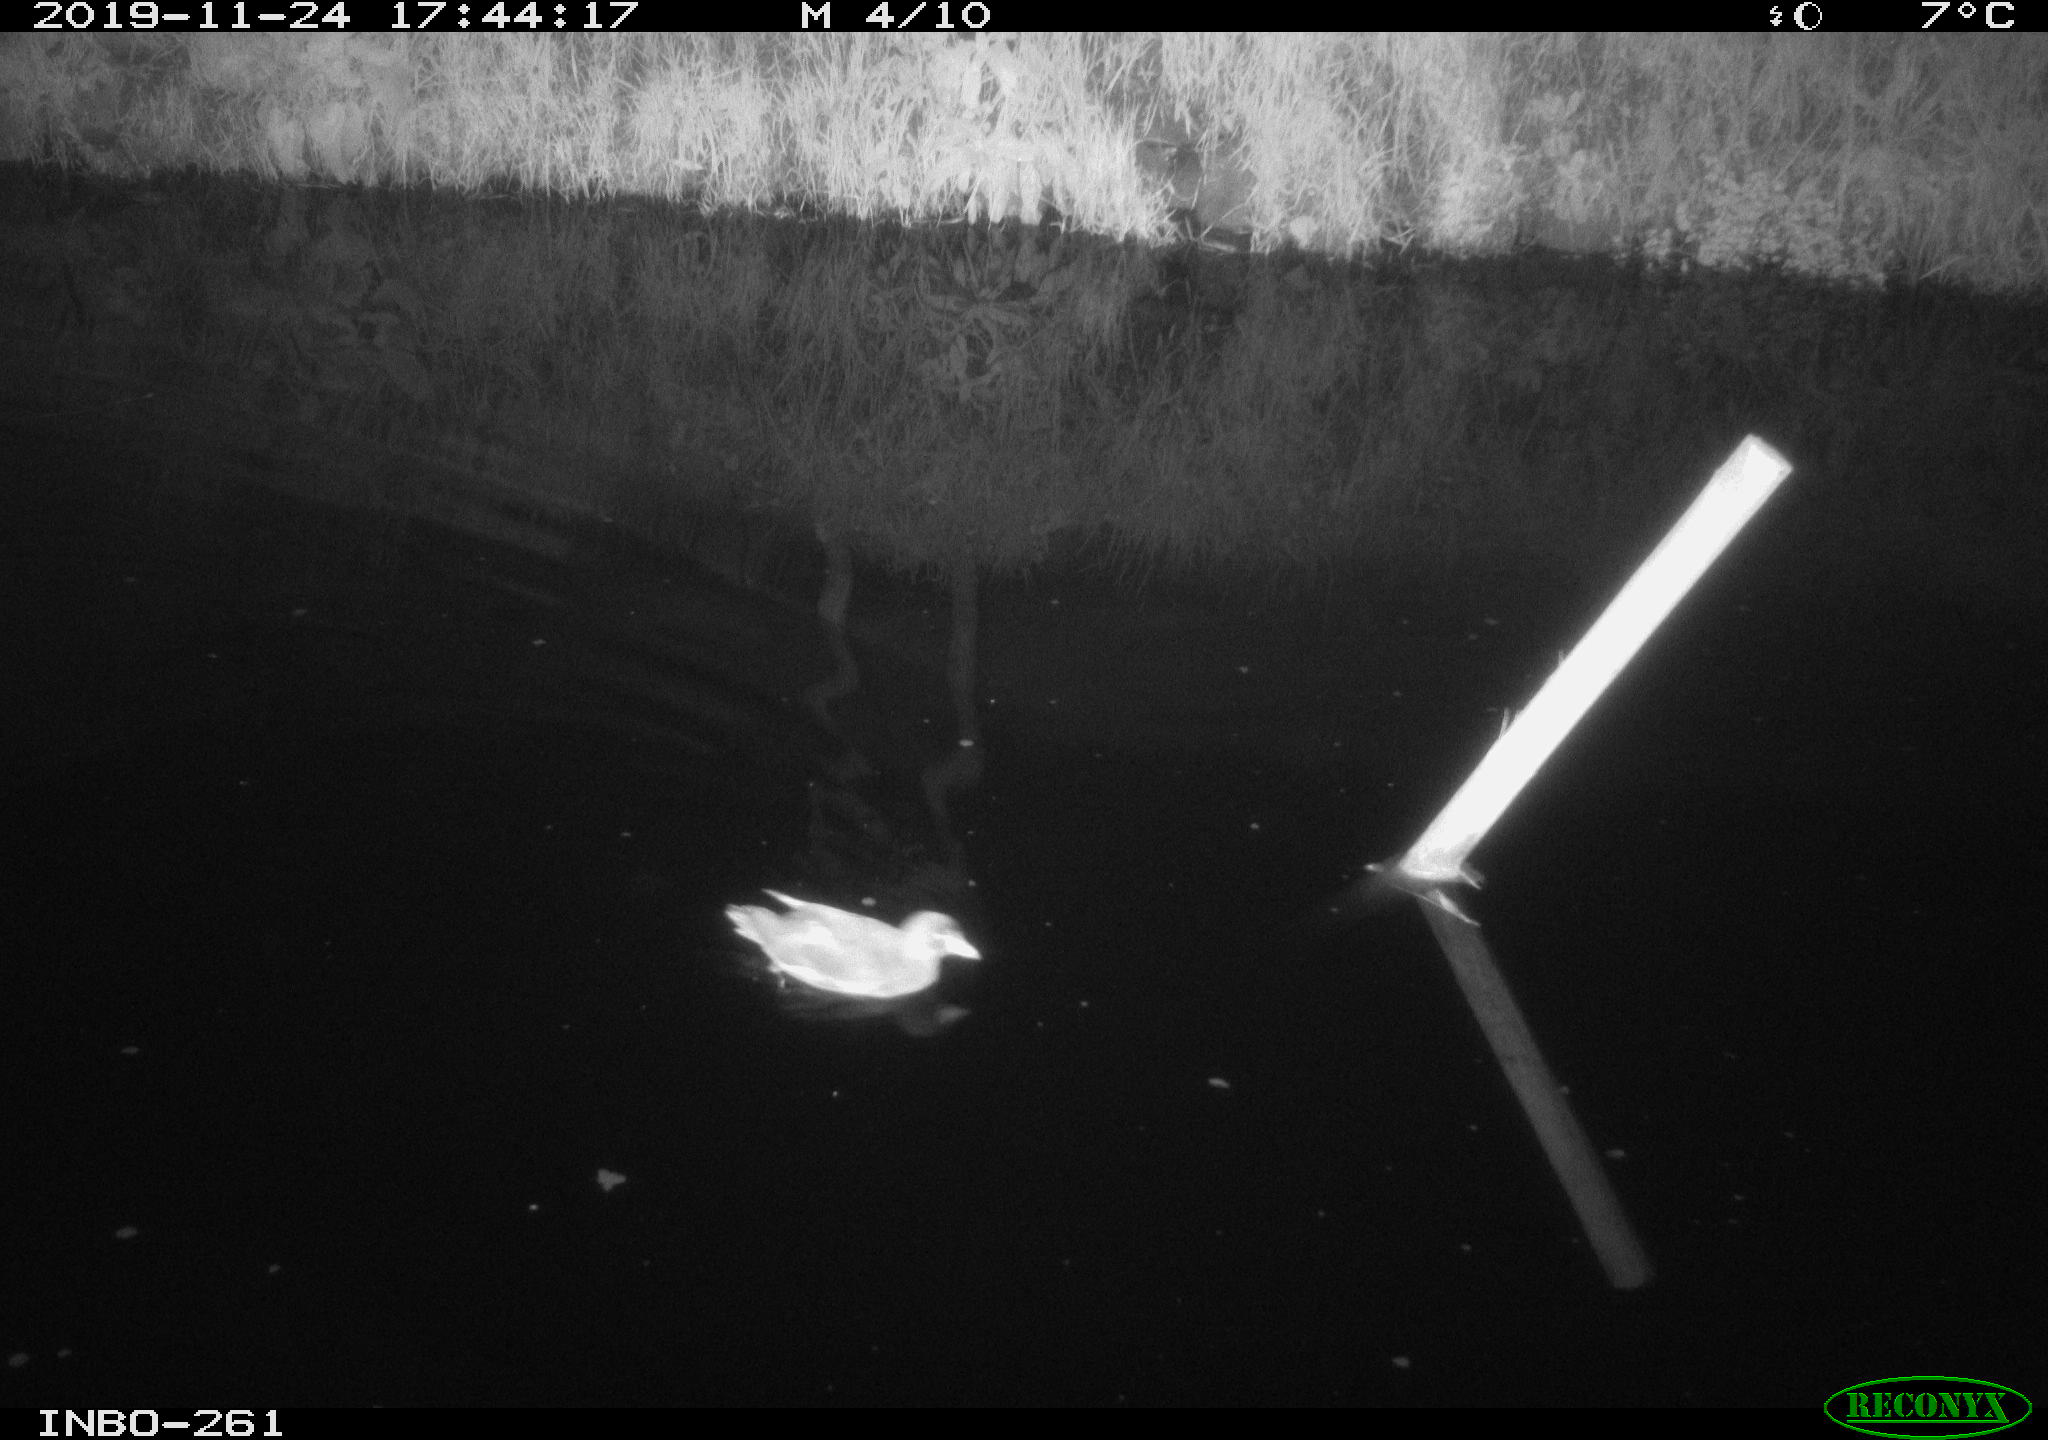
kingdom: Animalia
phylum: Chordata
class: Aves
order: Gruiformes
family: Rallidae
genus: Gallinula
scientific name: Gallinula chloropus
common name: Common moorhen
